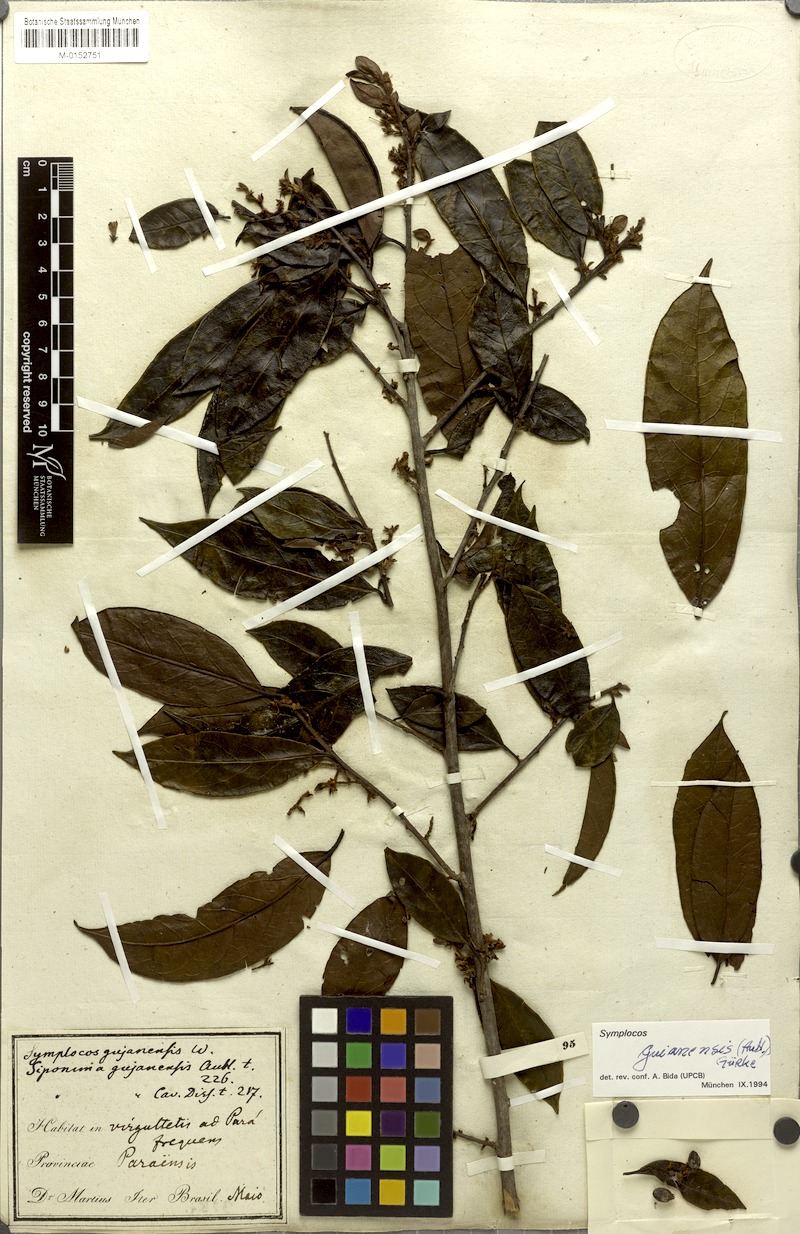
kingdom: Plantae
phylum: Tracheophyta
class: Magnoliopsida
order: Ericales
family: Symplocaceae
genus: Symplocos
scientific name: Symplocos guianensis
